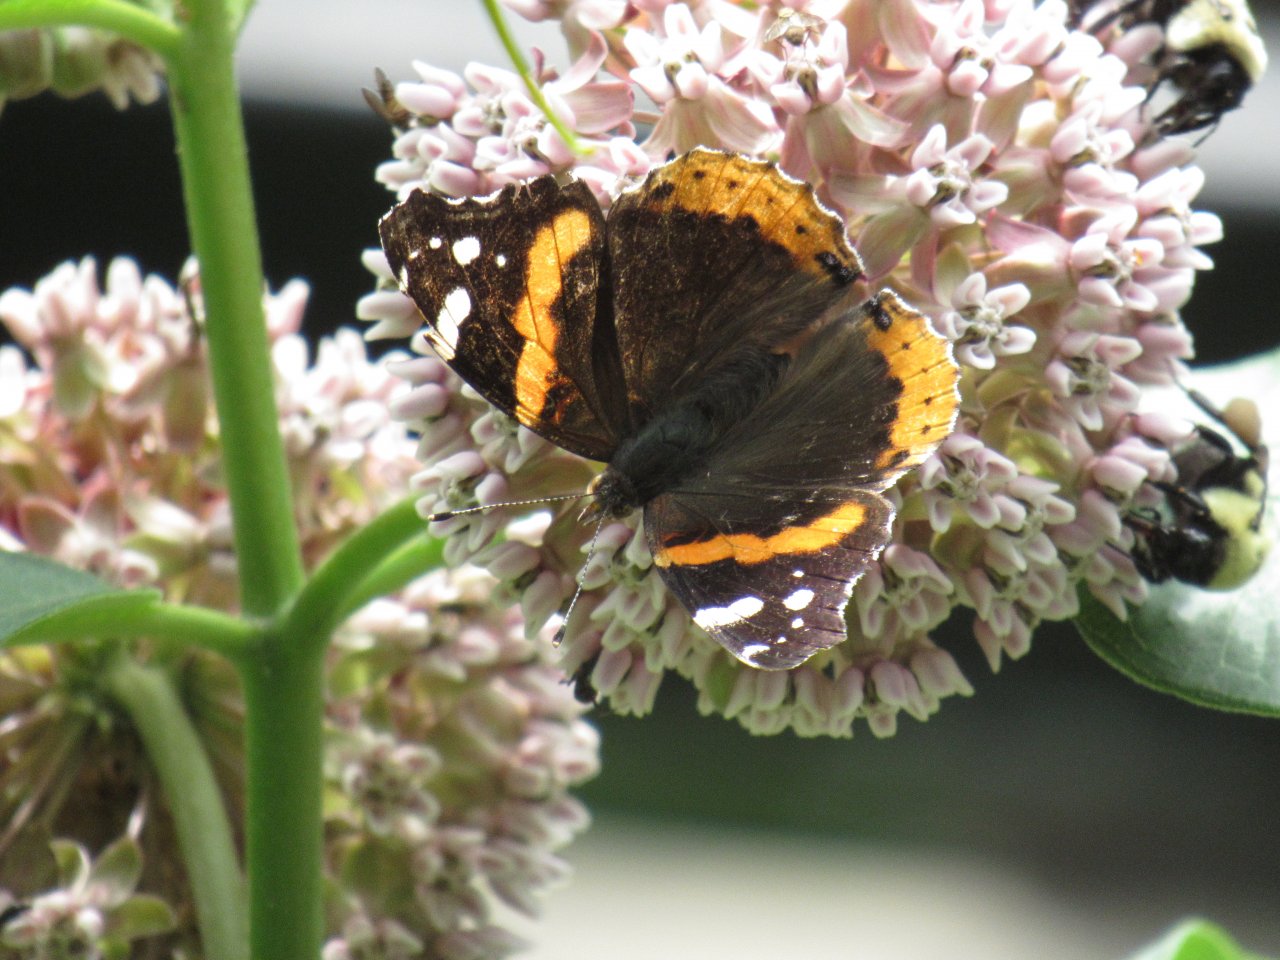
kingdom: Animalia
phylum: Arthropoda
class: Insecta
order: Lepidoptera
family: Nymphalidae
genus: Vanessa
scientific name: Vanessa atalanta
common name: Red Admiral
